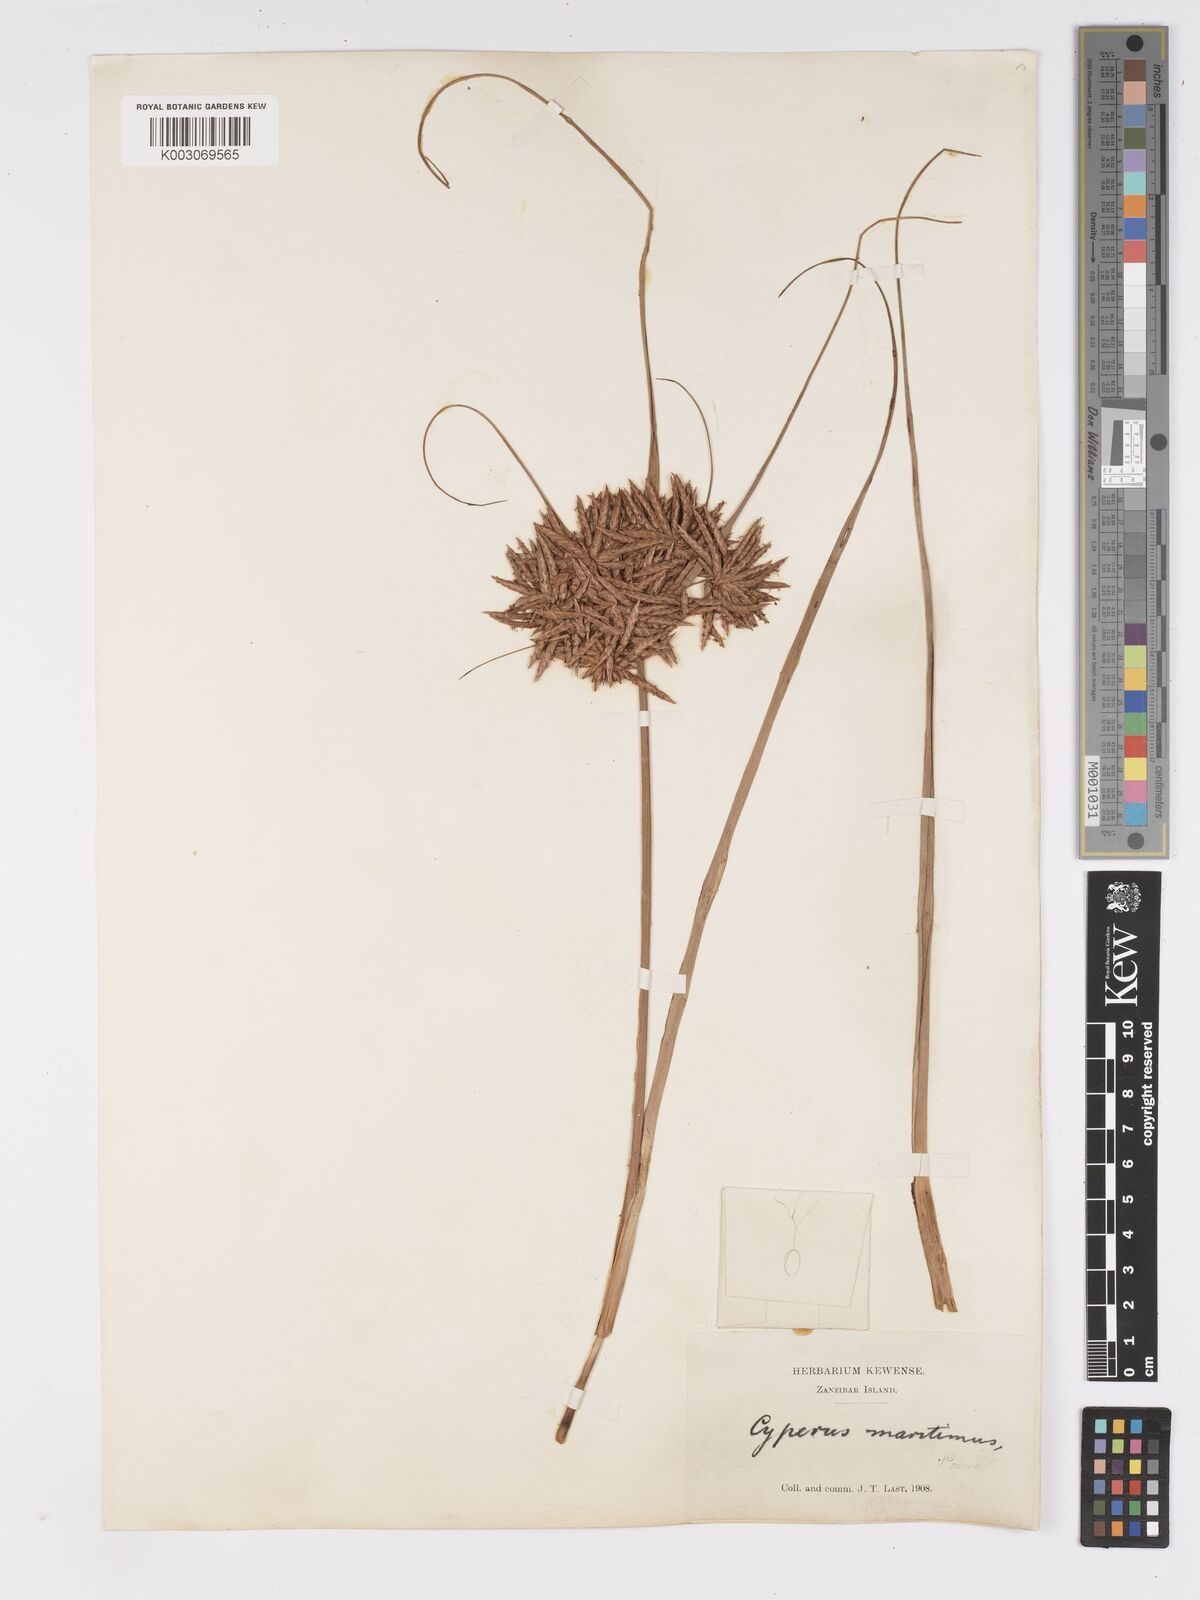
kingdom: Plantae
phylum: Tracheophyta
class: Liliopsida
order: Poales
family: Cyperaceae
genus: Cyperus
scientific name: Cyperus crassipes
